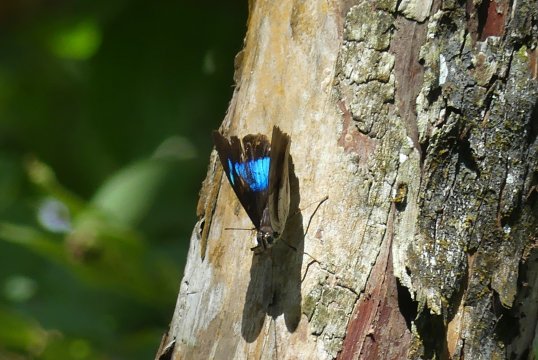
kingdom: Animalia
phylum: Arthropoda
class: Insecta
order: Lepidoptera
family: Nymphalidae
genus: Prepona
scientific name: Prepona meander
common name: White-spotted Prepona
